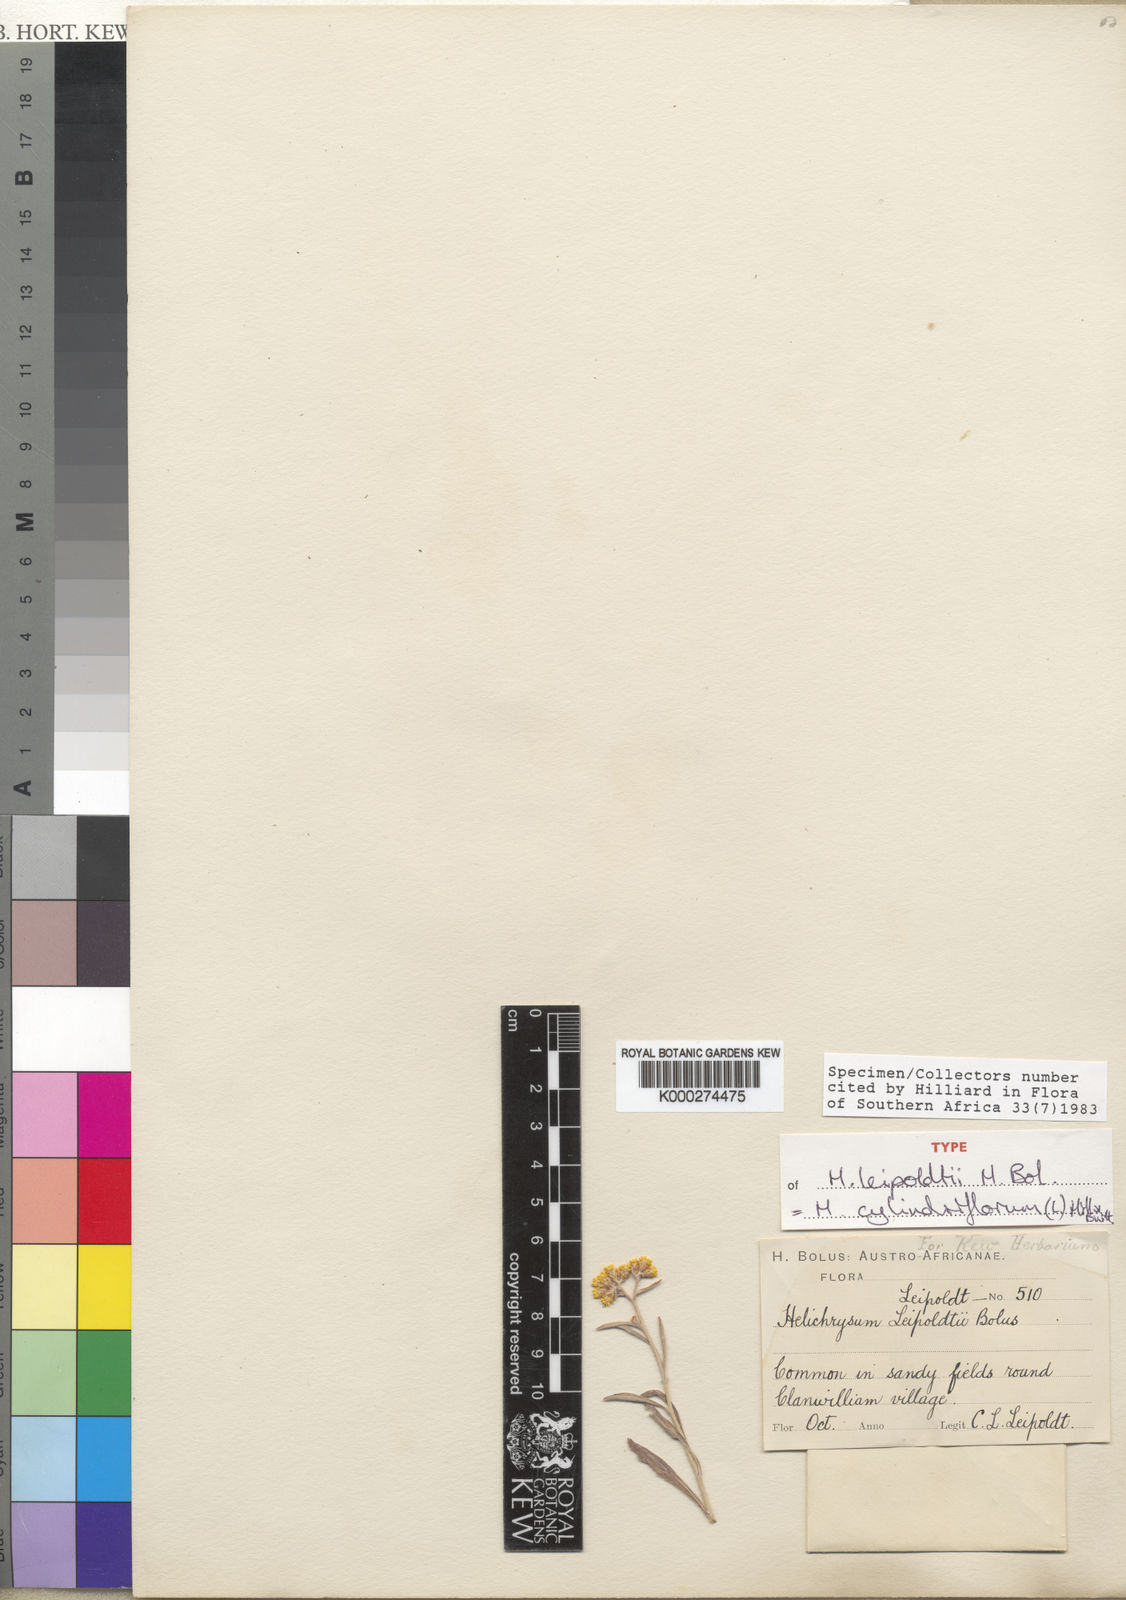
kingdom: Plantae
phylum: Tracheophyta
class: Magnoliopsida
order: Asterales
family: Asteraceae
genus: Helichrysum
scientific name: Helichrysum cylindriflorum
